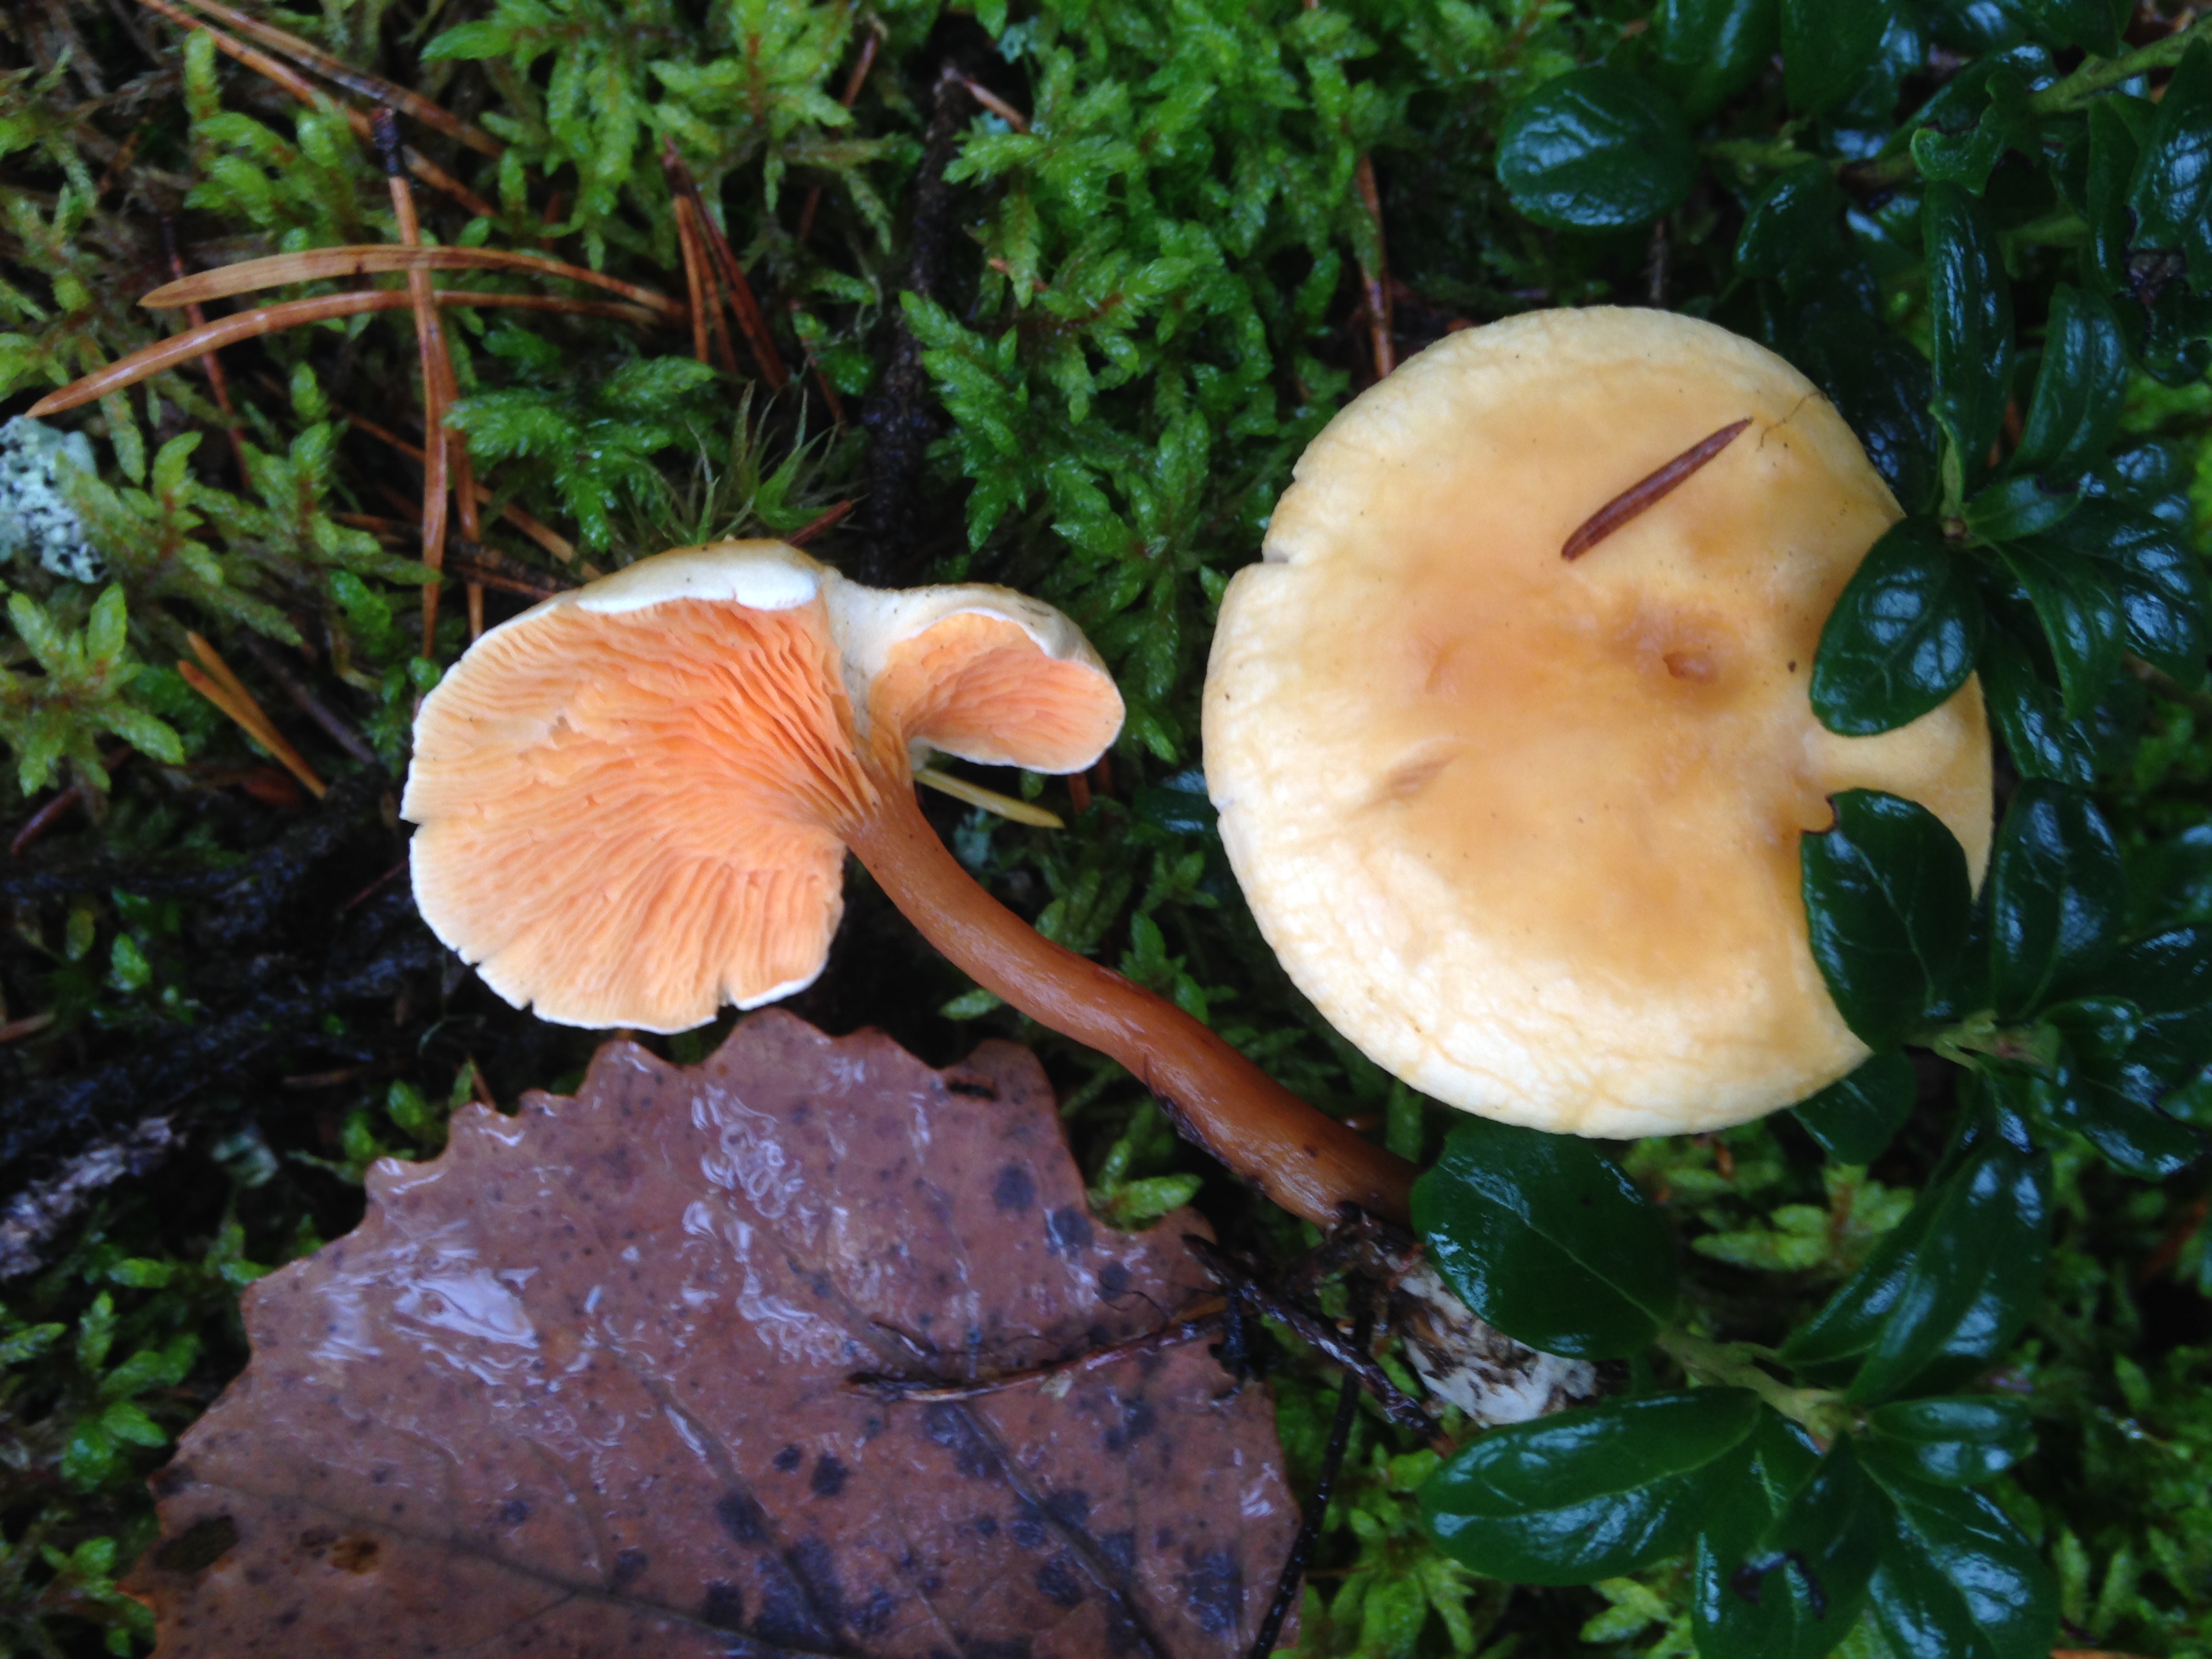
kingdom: Fungi
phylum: Basidiomycota
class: Agaricomycetes
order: Boletales
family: Hygrophoropsidaceae
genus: Hygrophoropsis
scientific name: Hygrophoropsis aurantiaca
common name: False chanterelle
